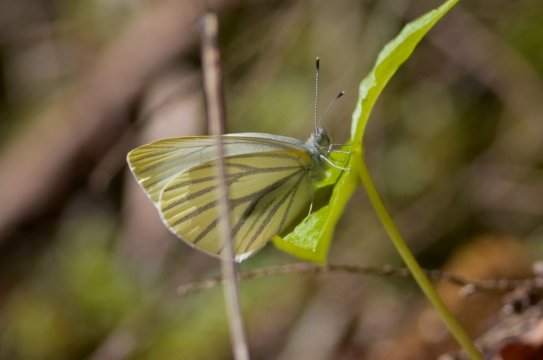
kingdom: Animalia
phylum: Arthropoda
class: Insecta
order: Lepidoptera
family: Pieridae
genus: Pieris
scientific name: Pieris oleracea
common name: Mustard White
